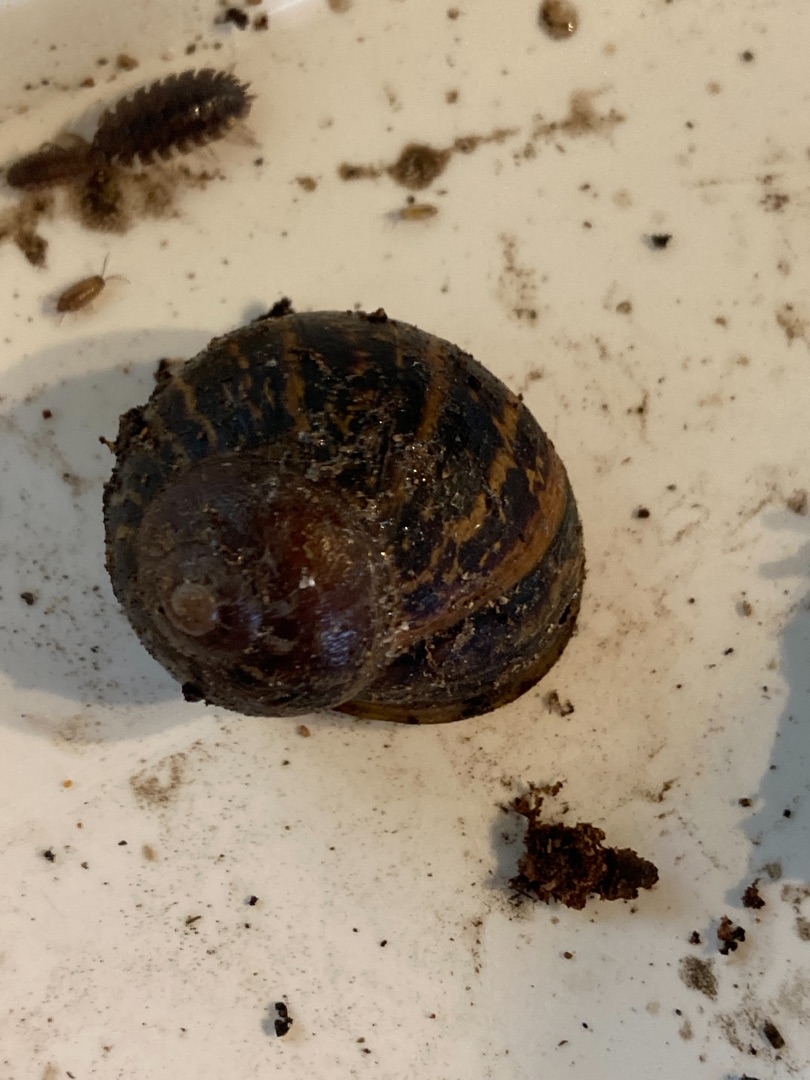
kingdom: Animalia
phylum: Mollusca
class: Gastropoda
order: Stylommatophora
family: Helicidae
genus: Cornu
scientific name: Cornu aspersum
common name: Plettet voldsnegl
